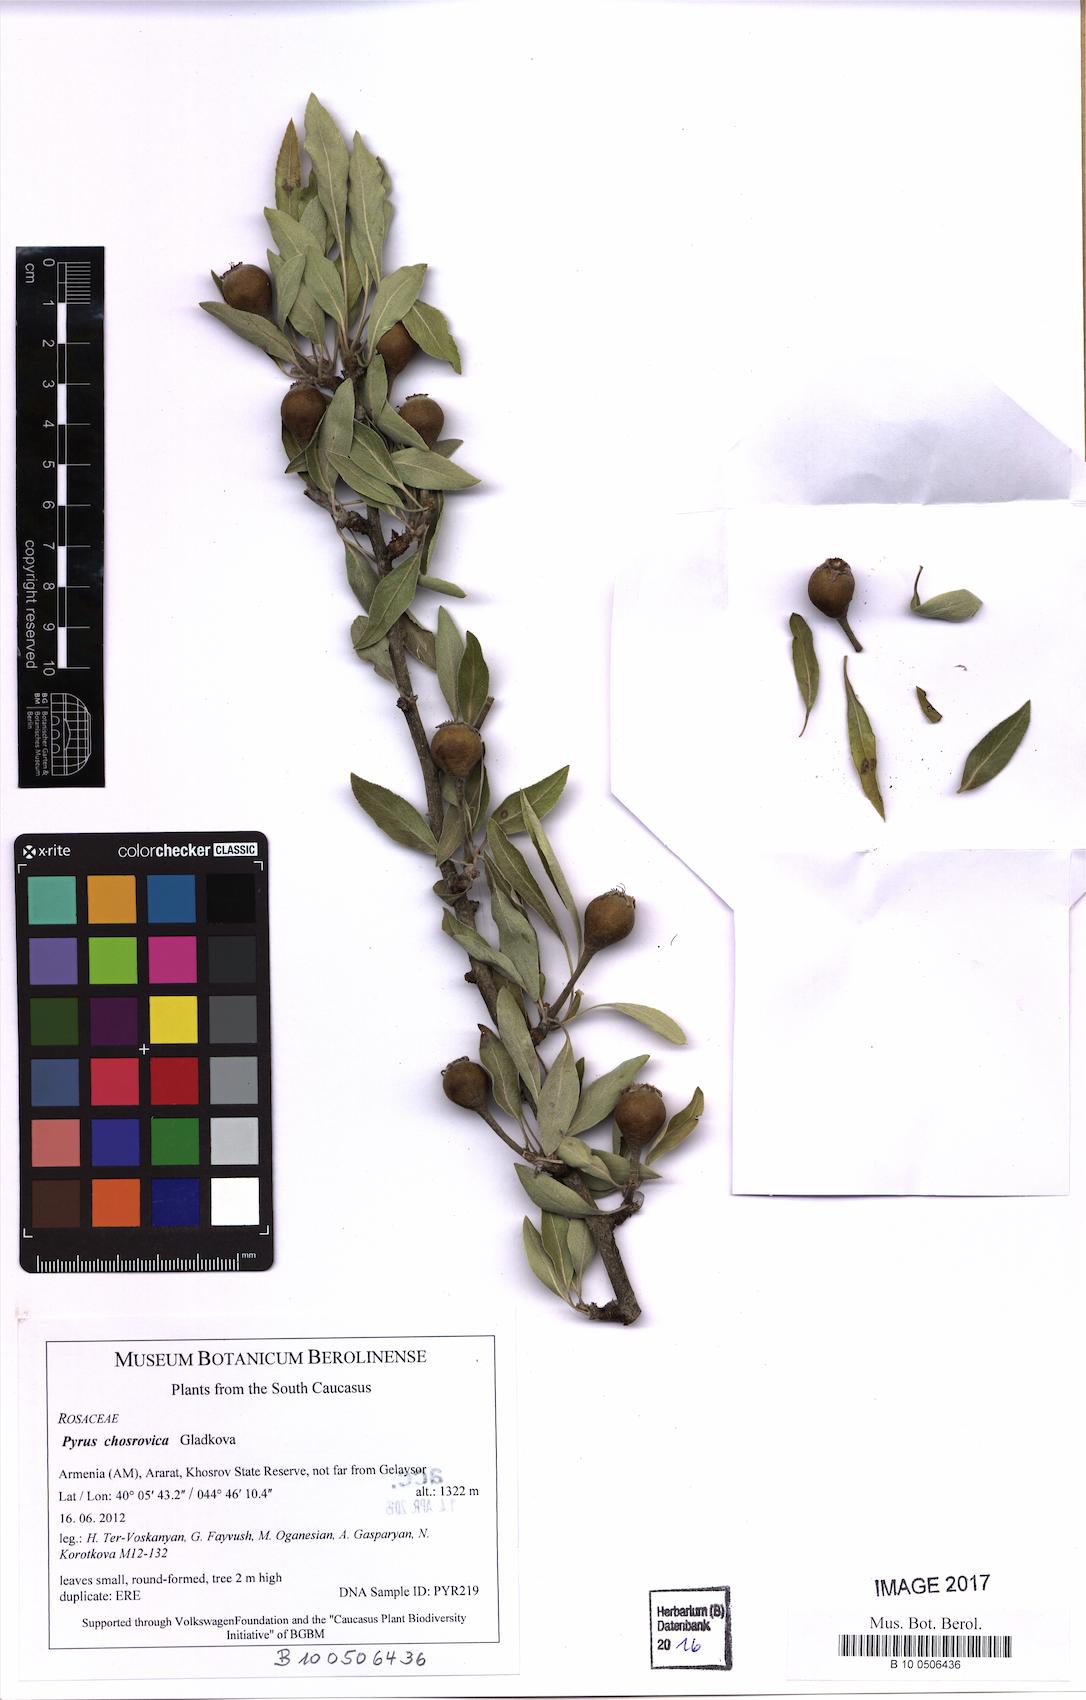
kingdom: Plantae
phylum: Tracheophyta
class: Magnoliopsida
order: Rosales
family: Rosaceae
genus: Pyrus
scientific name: Pyrus chosrovica
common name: Khosrovian pear
